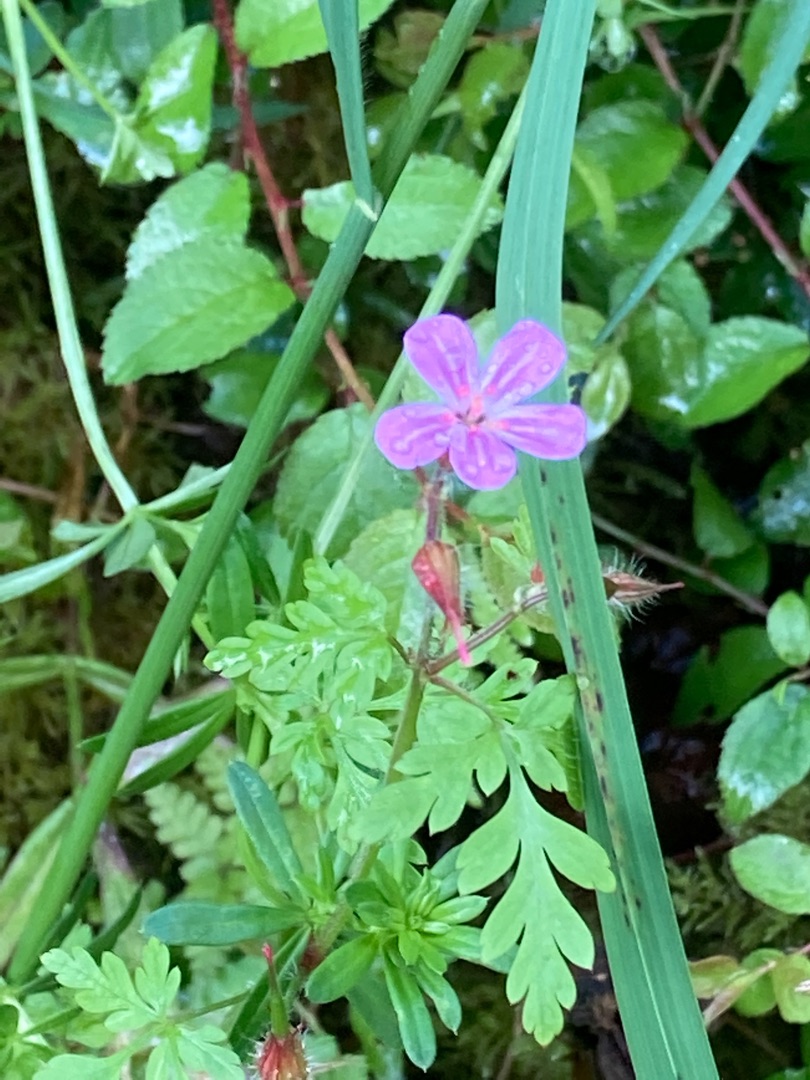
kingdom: Plantae
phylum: Tracheophyta
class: Magnoliopsida
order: Geraniales
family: Geraniaceae
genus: Geranium
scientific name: Geranium robertianum
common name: Stinkende storkenæb
